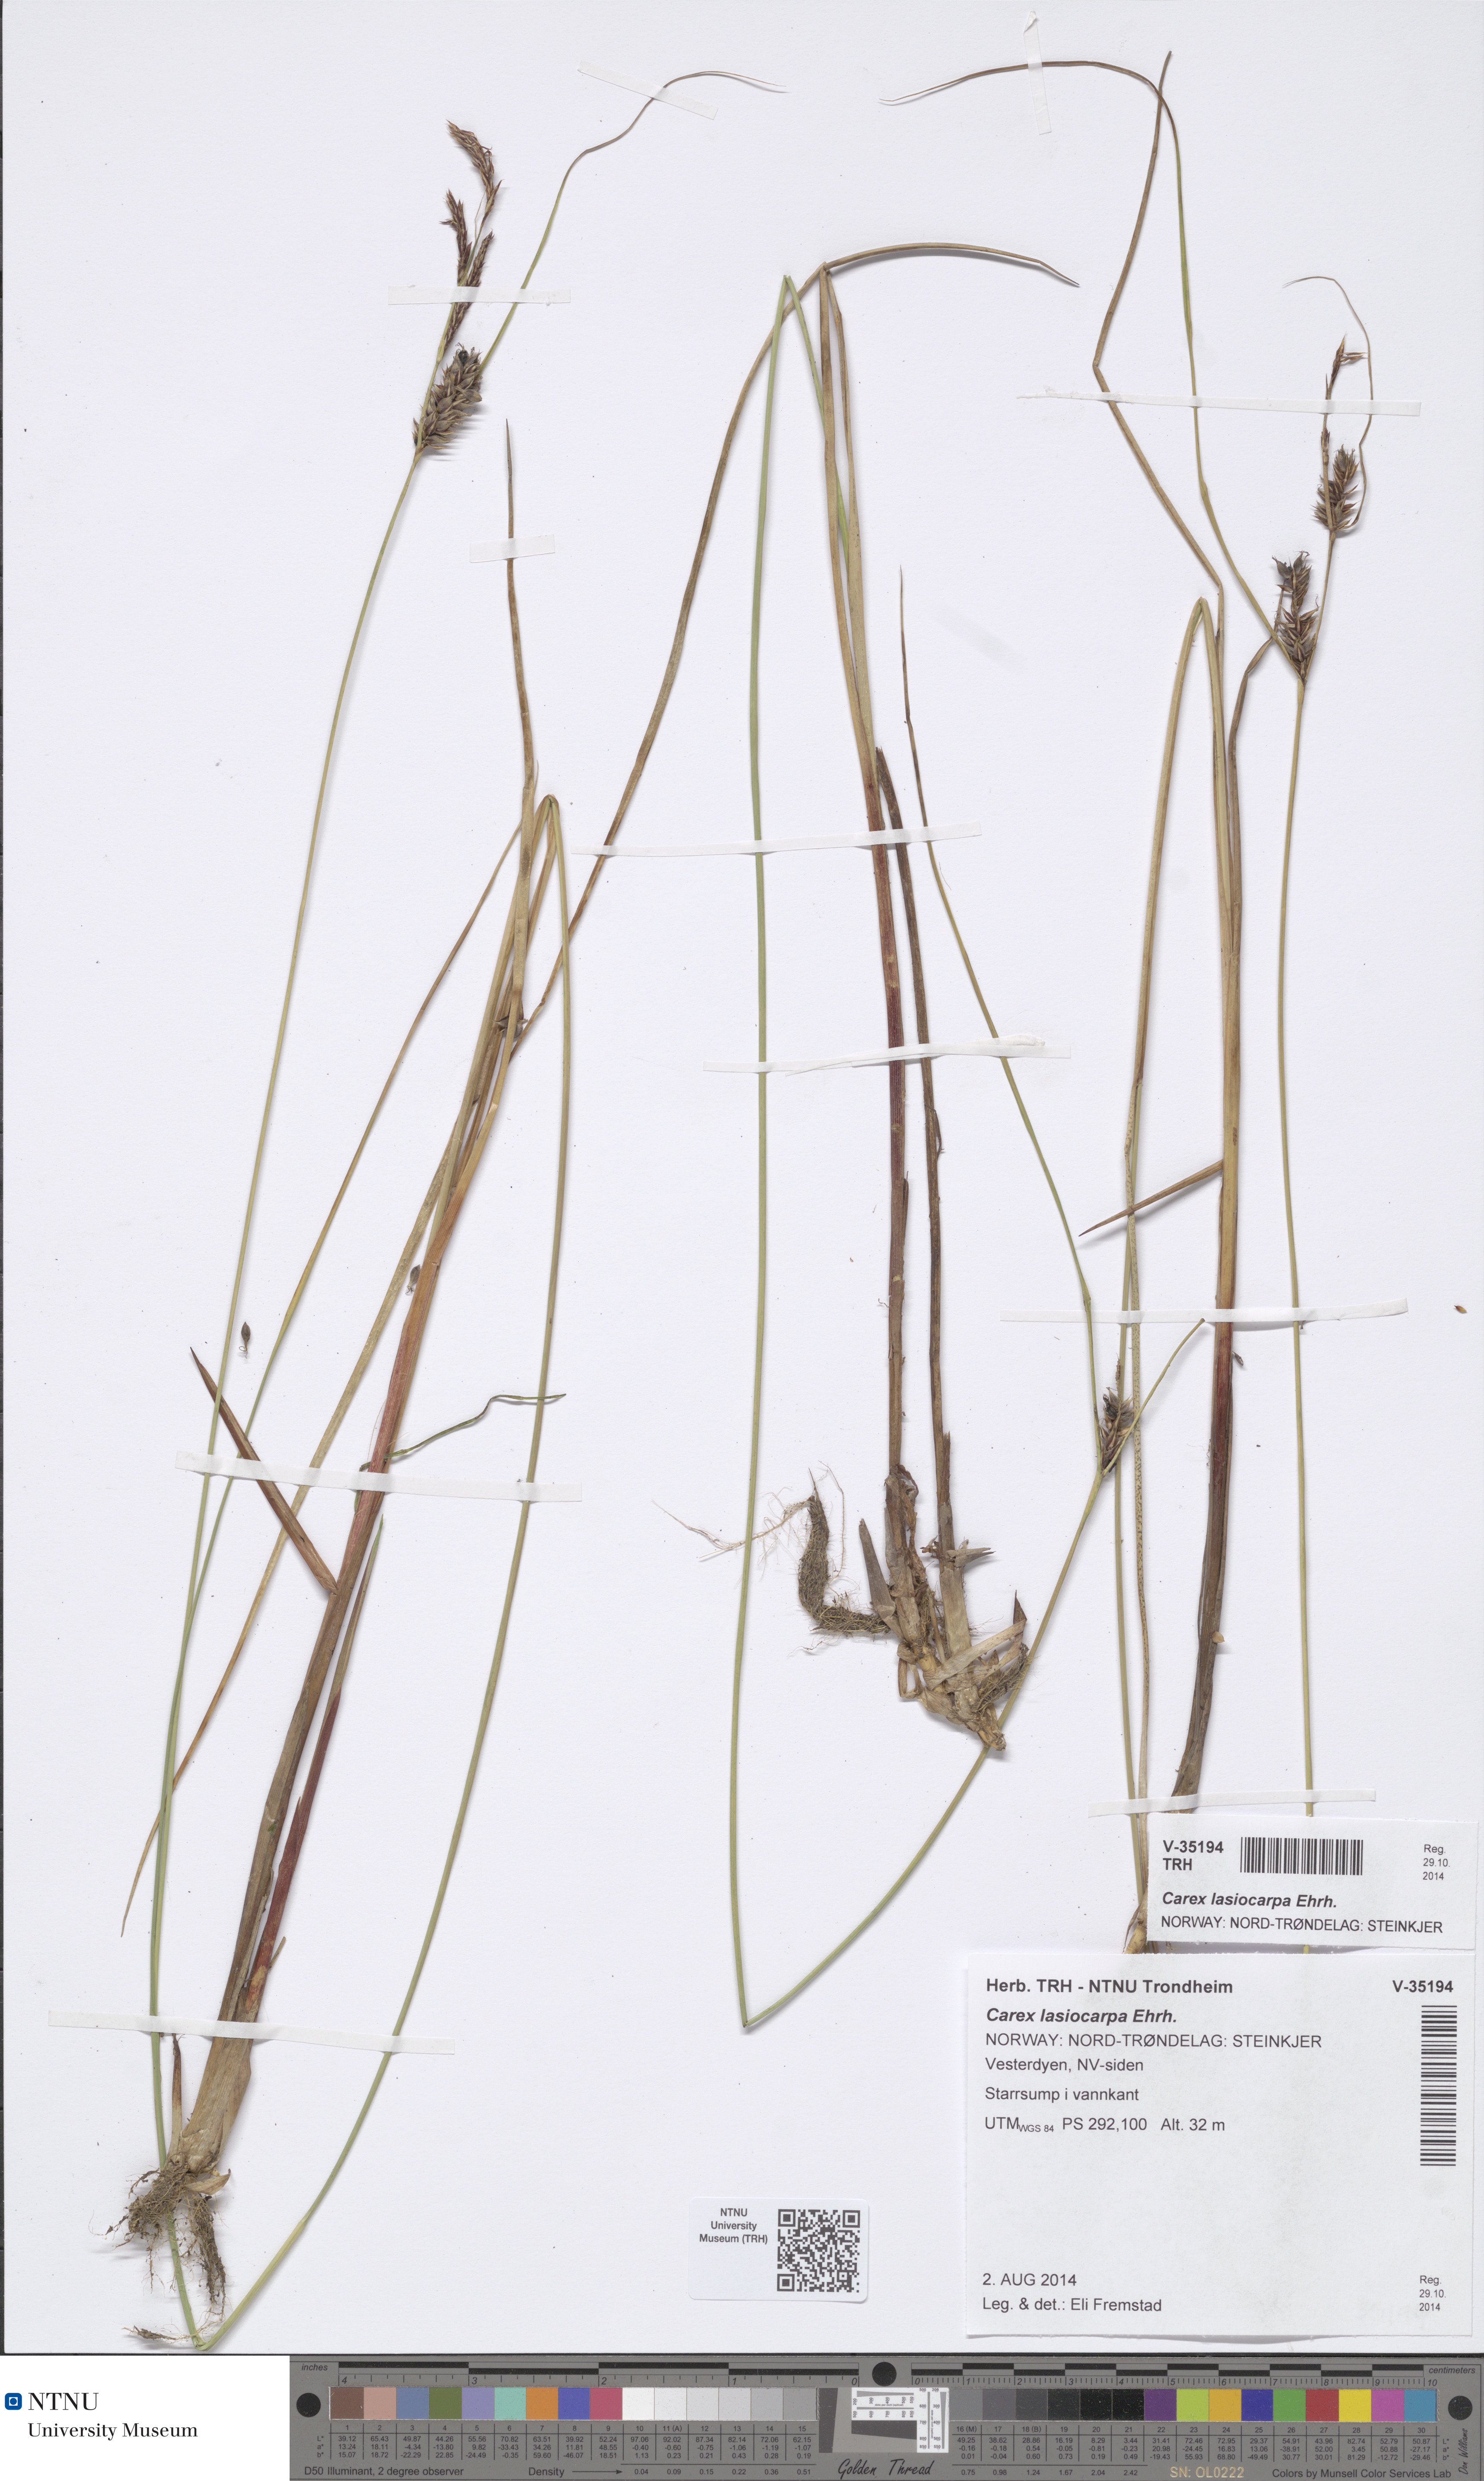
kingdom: Plantae
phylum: Tracheophyta
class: Liliopsida
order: Poales
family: Cyperaceae
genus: Carex
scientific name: Carex lasiocarpa
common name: Slender sedge
